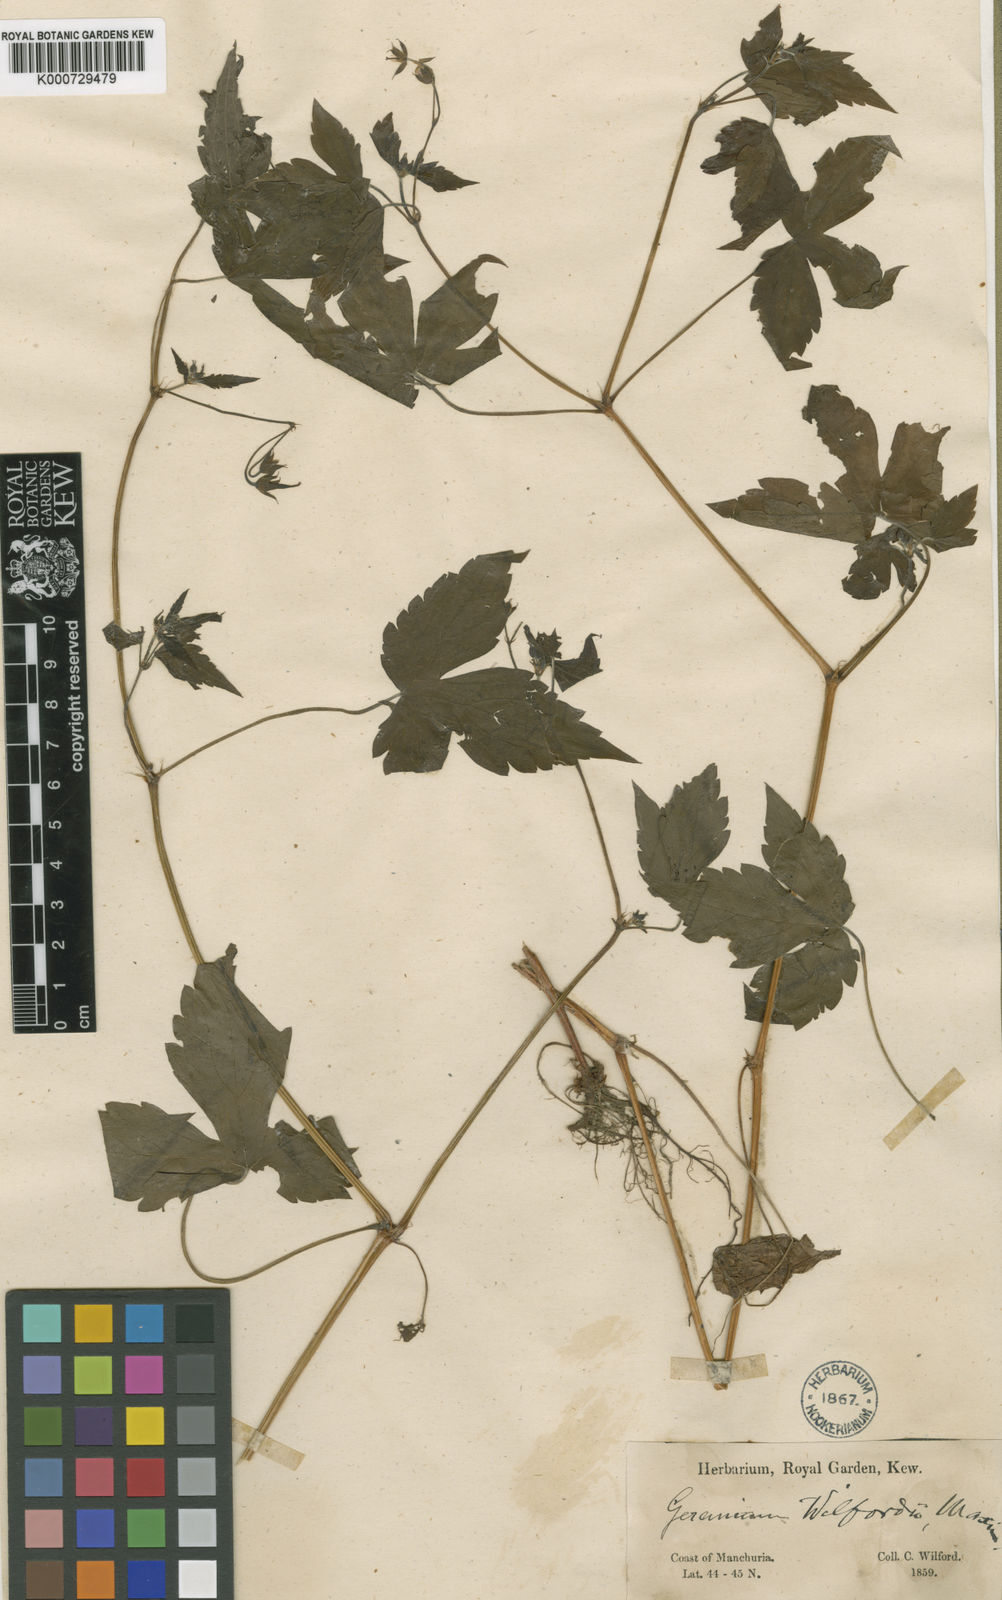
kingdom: Plantae
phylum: Tracheophyta
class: Magnoliopsida
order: Geraniales
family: Geraniaceae
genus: Geranium
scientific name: Geranium nodosum
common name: Knotted crane's-bill
